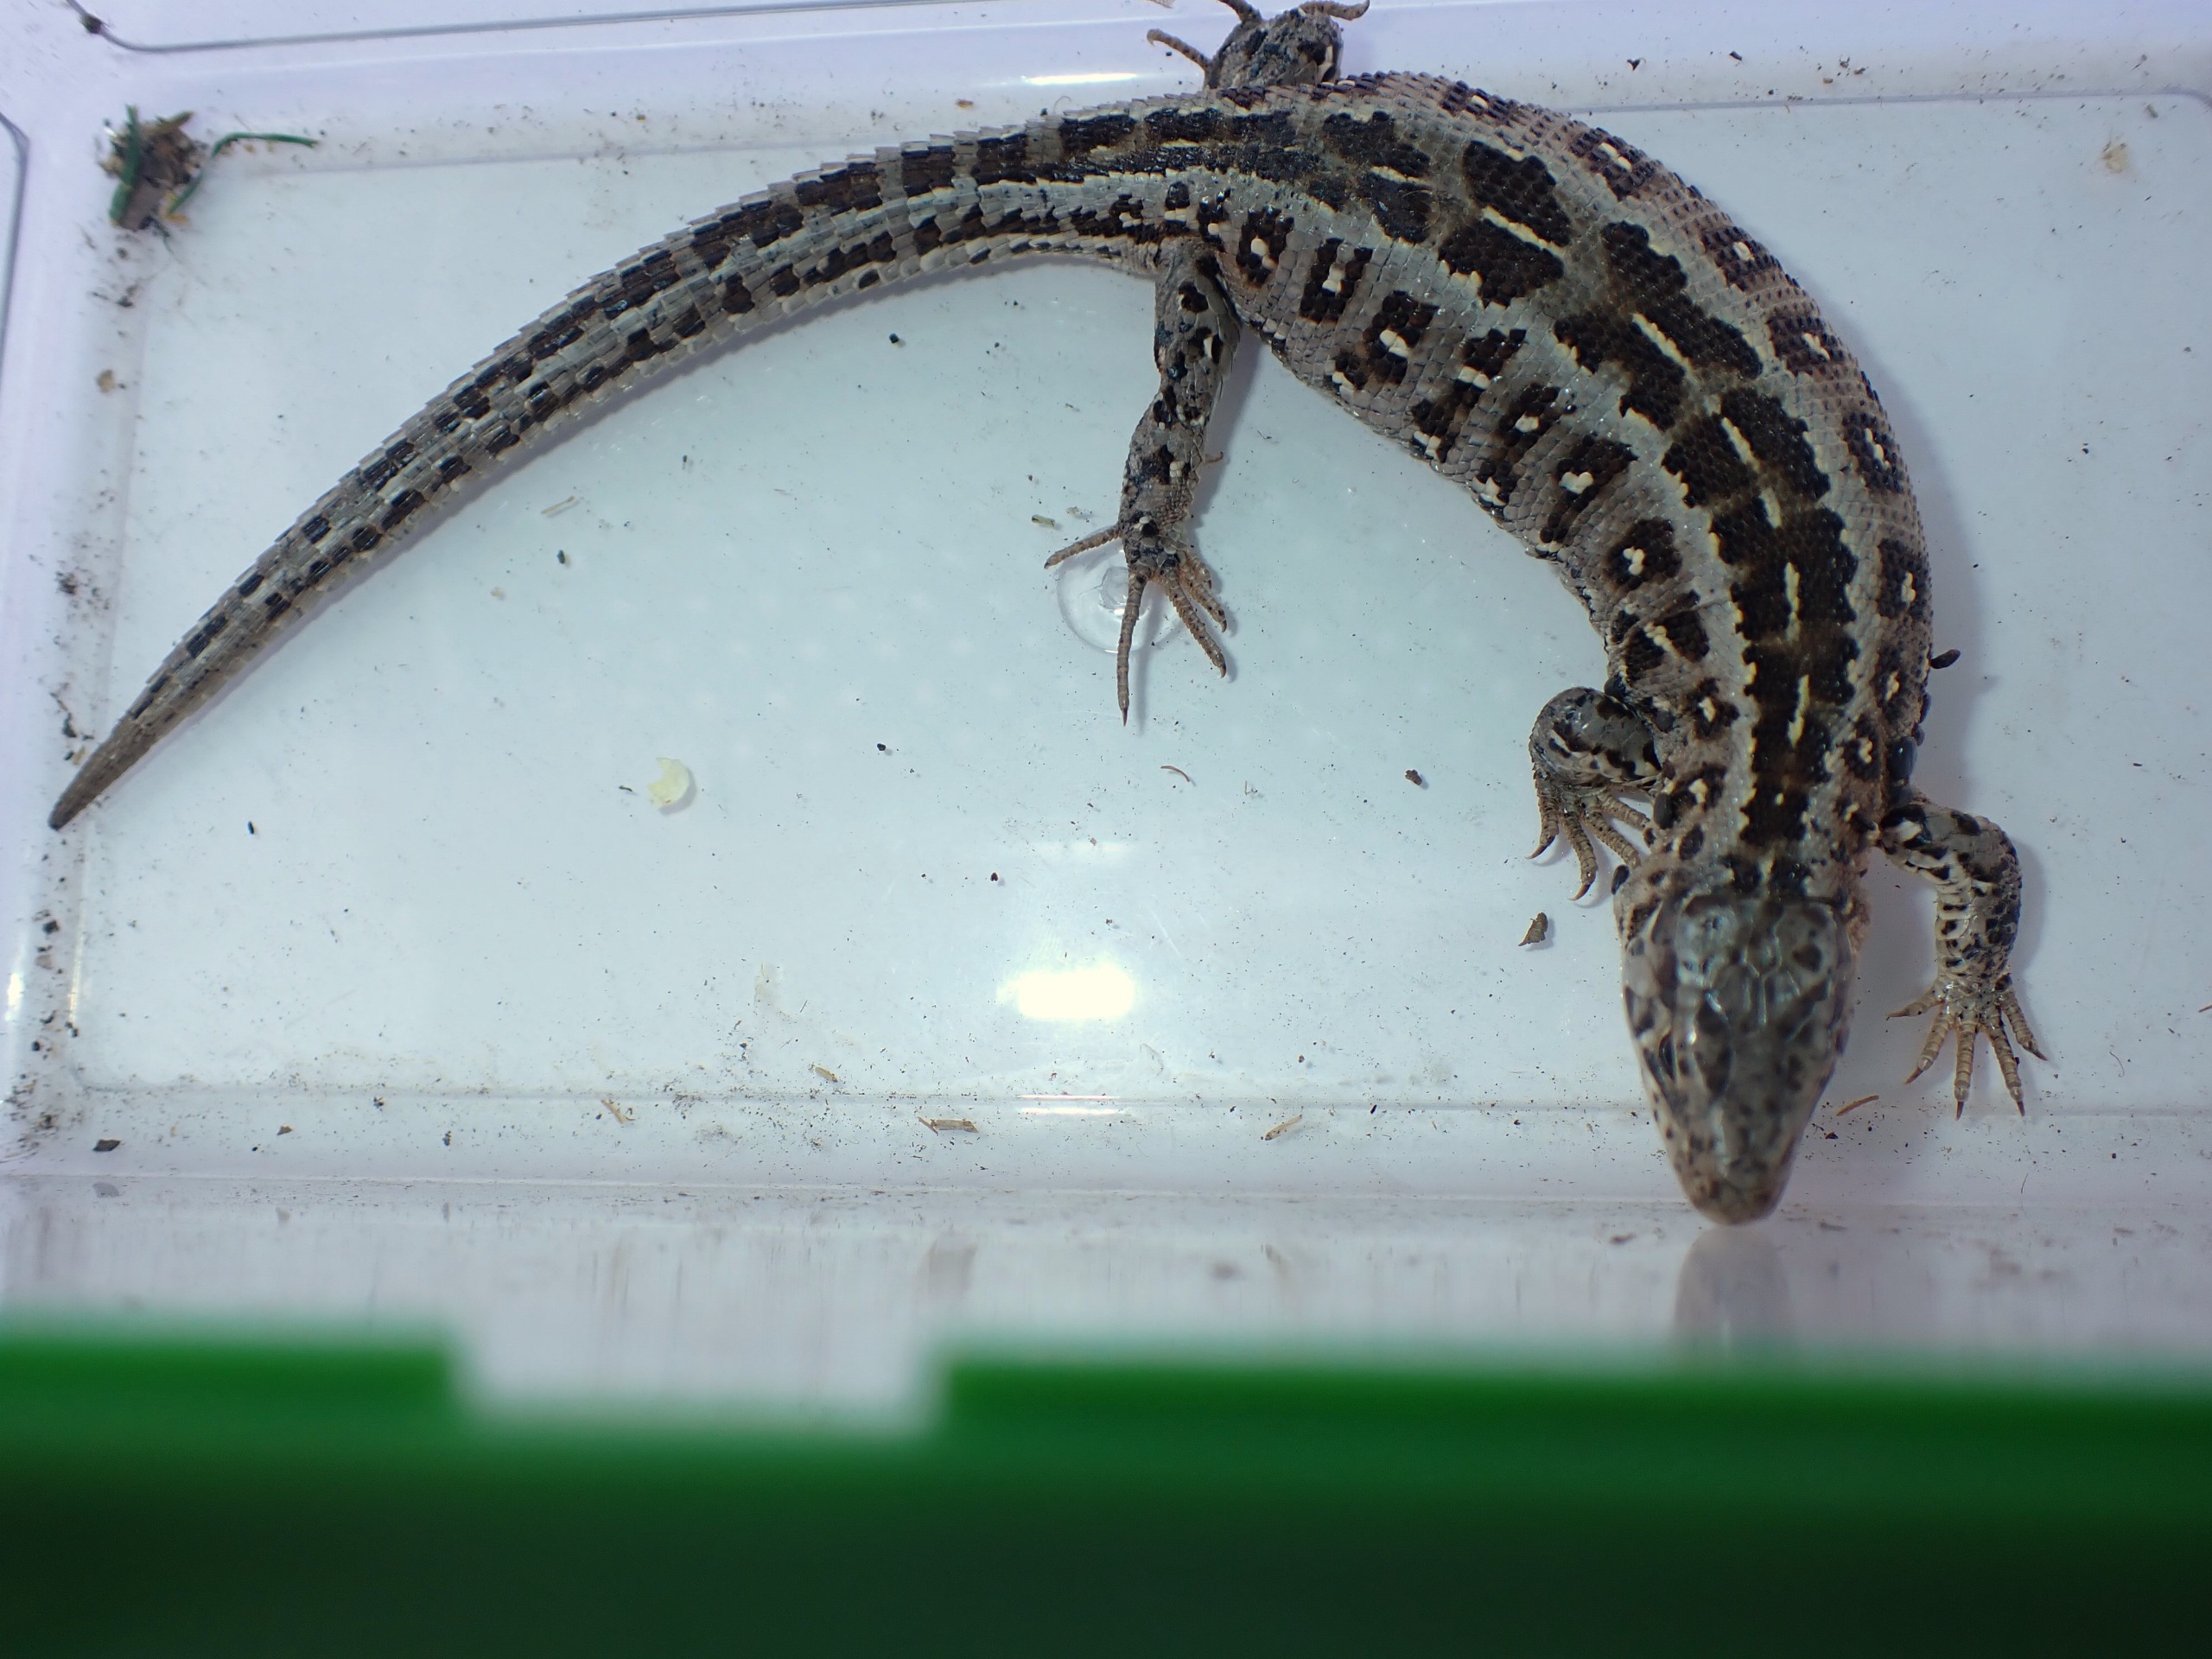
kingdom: Animalia
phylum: Chordata
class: Squamata
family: Lacertidae
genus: Lacerta
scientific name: Lacerta agilis
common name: Markfirben
